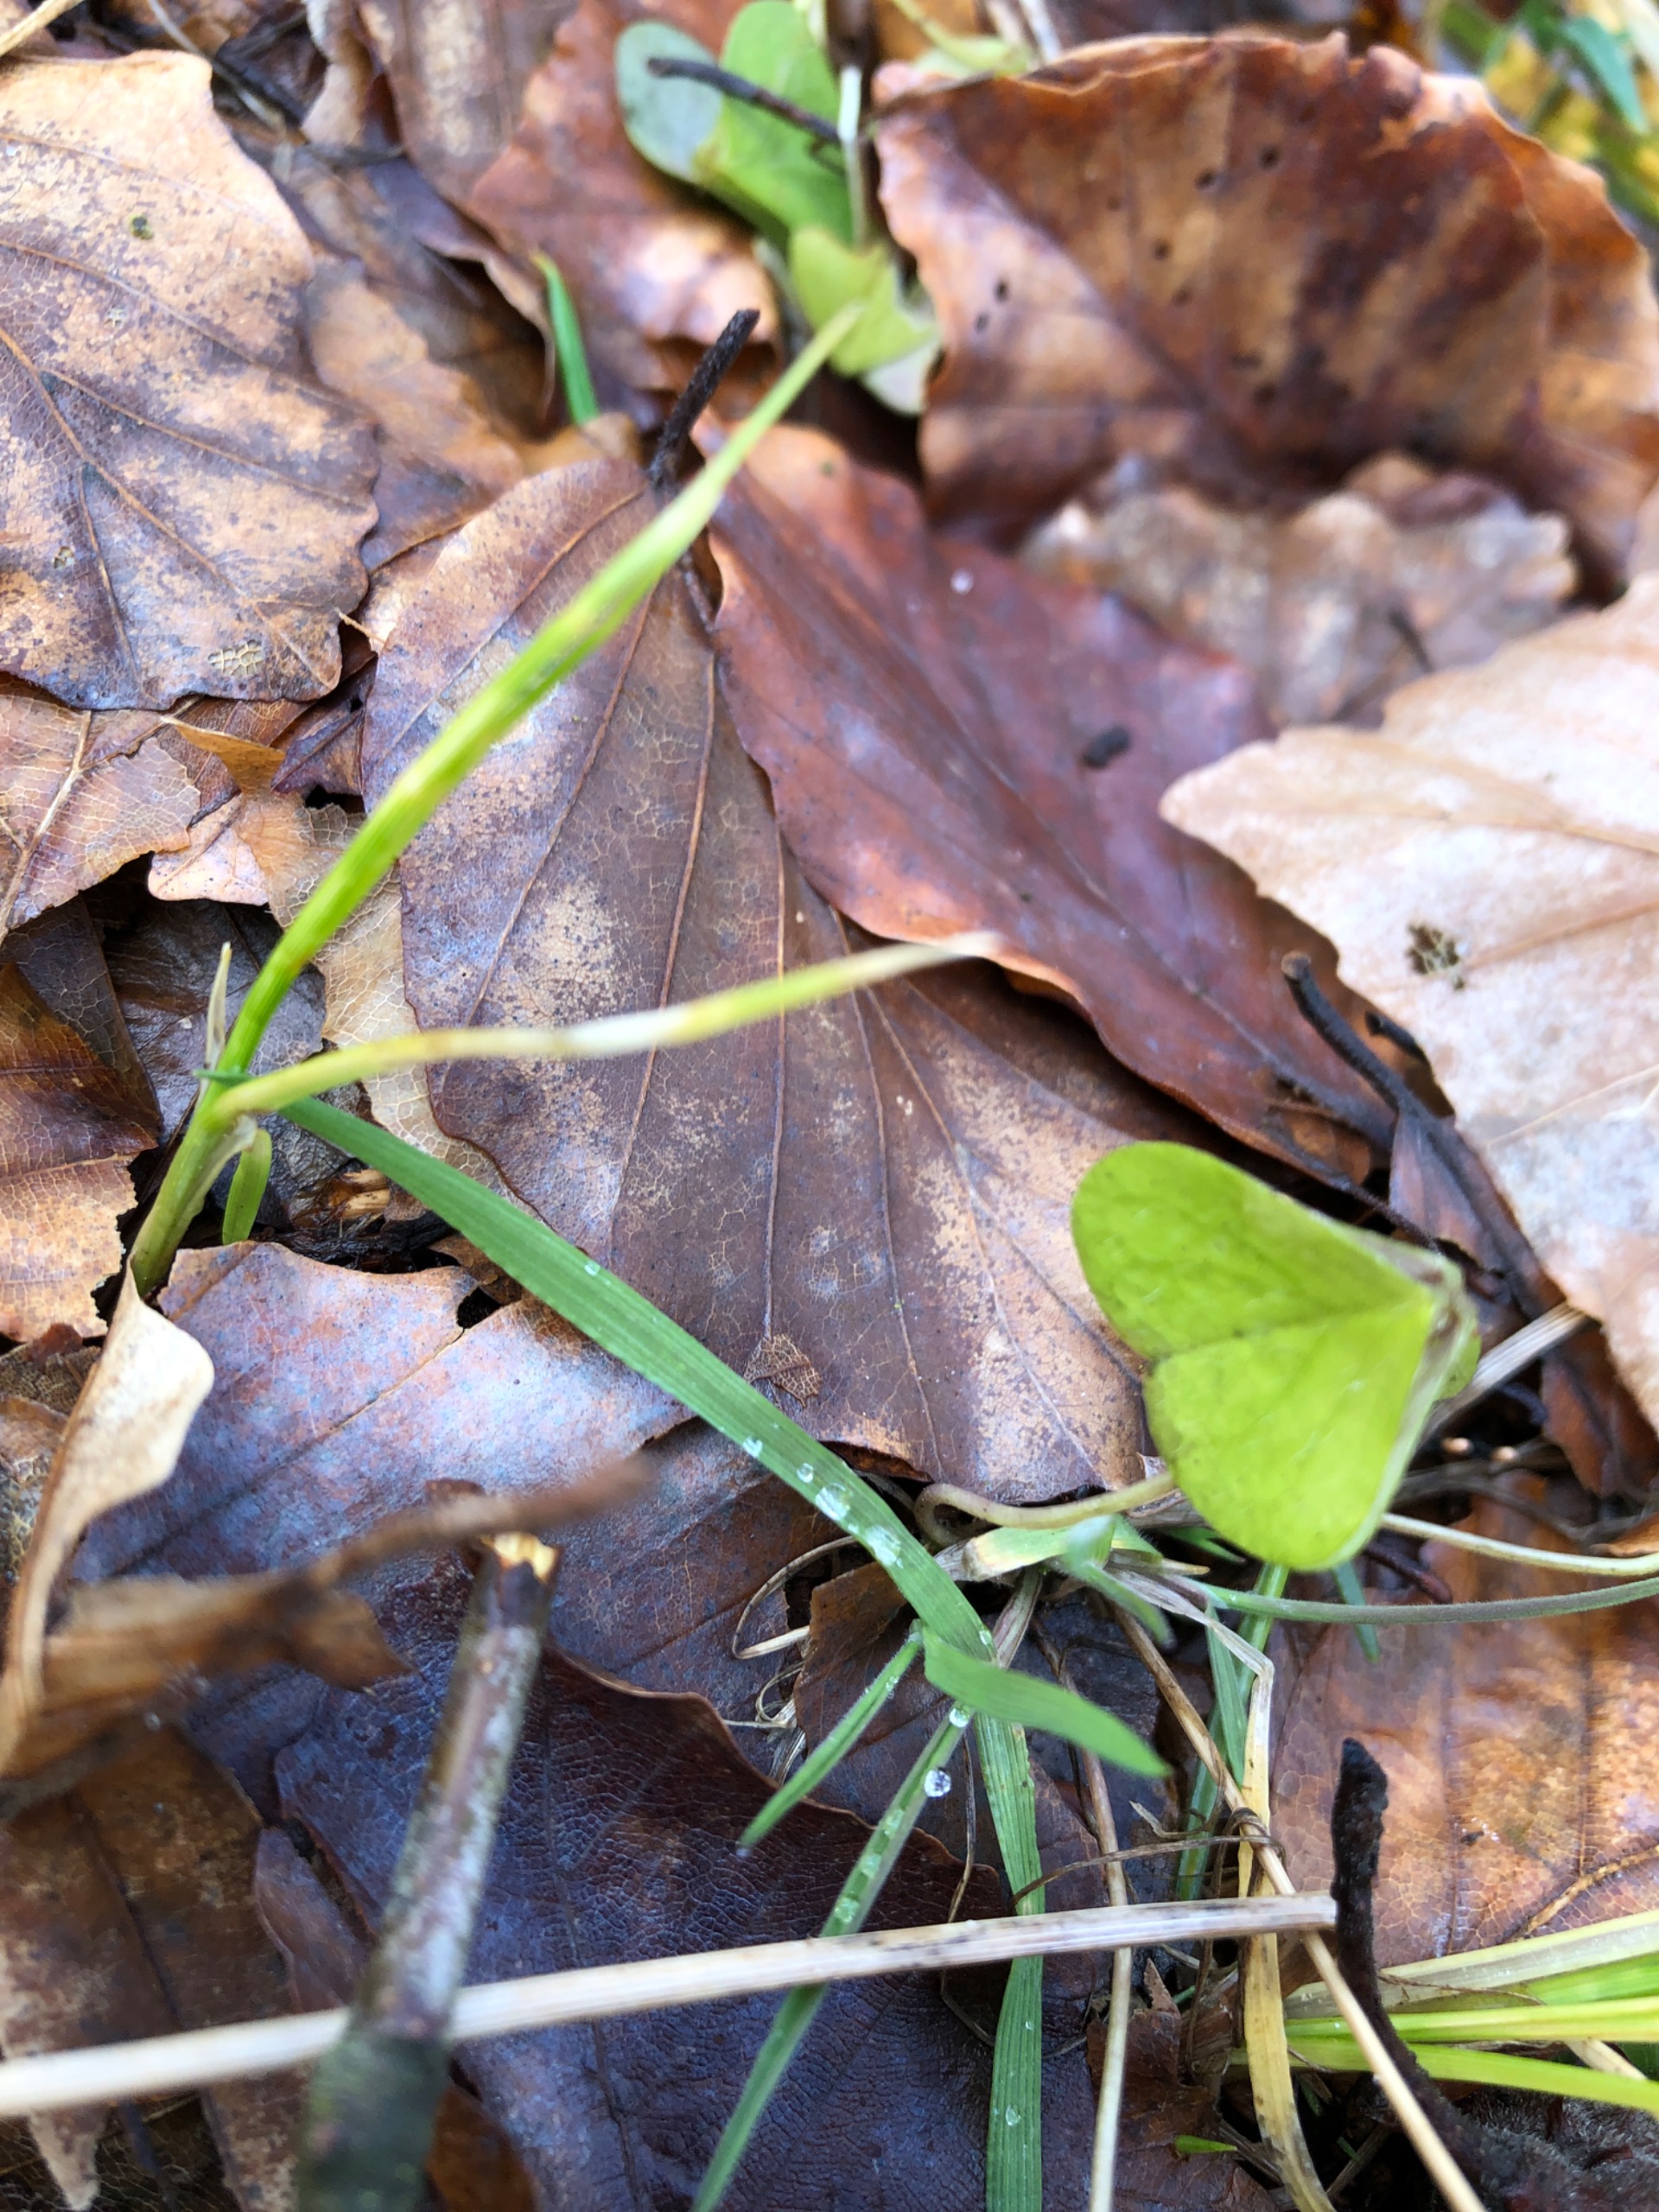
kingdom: Plantae
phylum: Tracheophyta
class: Magnoliopsida
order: Oxalidales
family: Oxalidaceae
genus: Oxalis
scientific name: Oxalis acetosella
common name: Skovsyre
